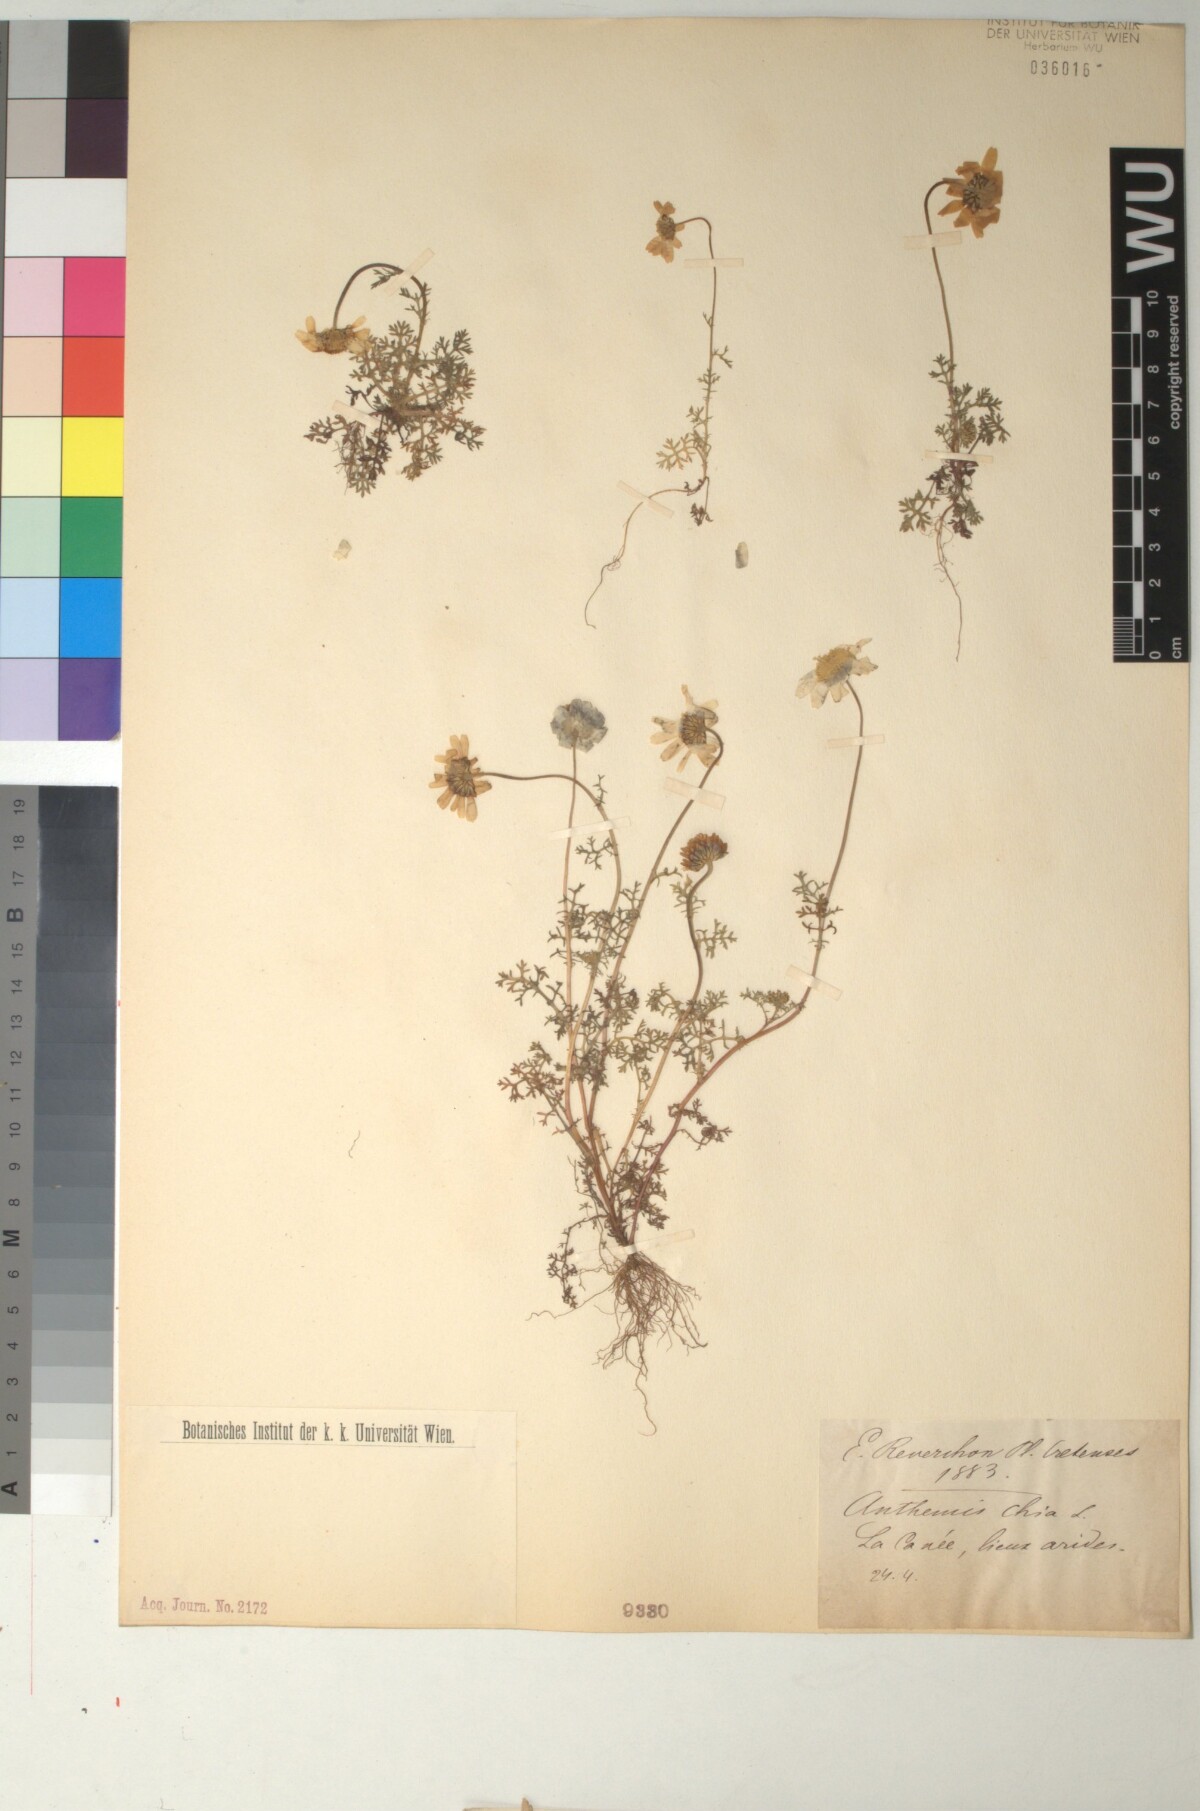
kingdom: Plantae
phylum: Tracheophyta
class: Magnoliopsida
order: Asterales
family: Asteraceae
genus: Anthemis
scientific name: Anthemis chia
